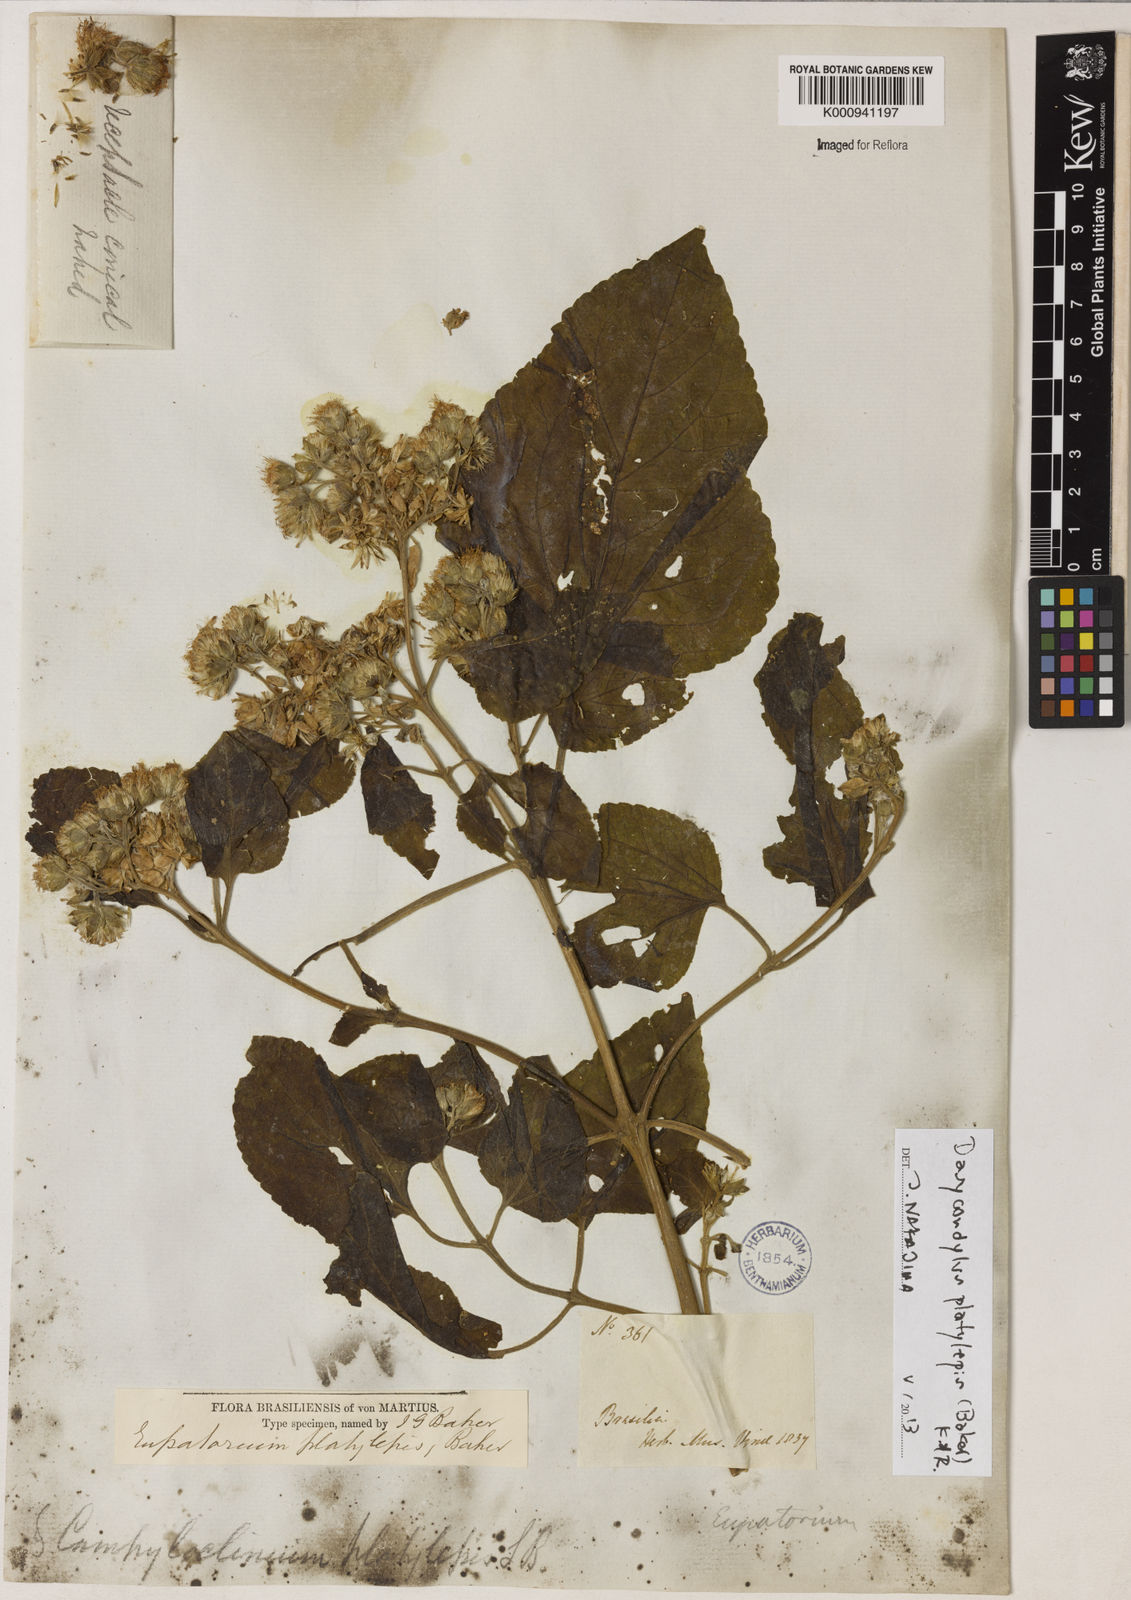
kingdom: Plantae
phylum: Tracheophyta
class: Magnoliopsida
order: Asterales
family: Asteraceae
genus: Dasycondylus
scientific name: Dasycondylus platylepis
